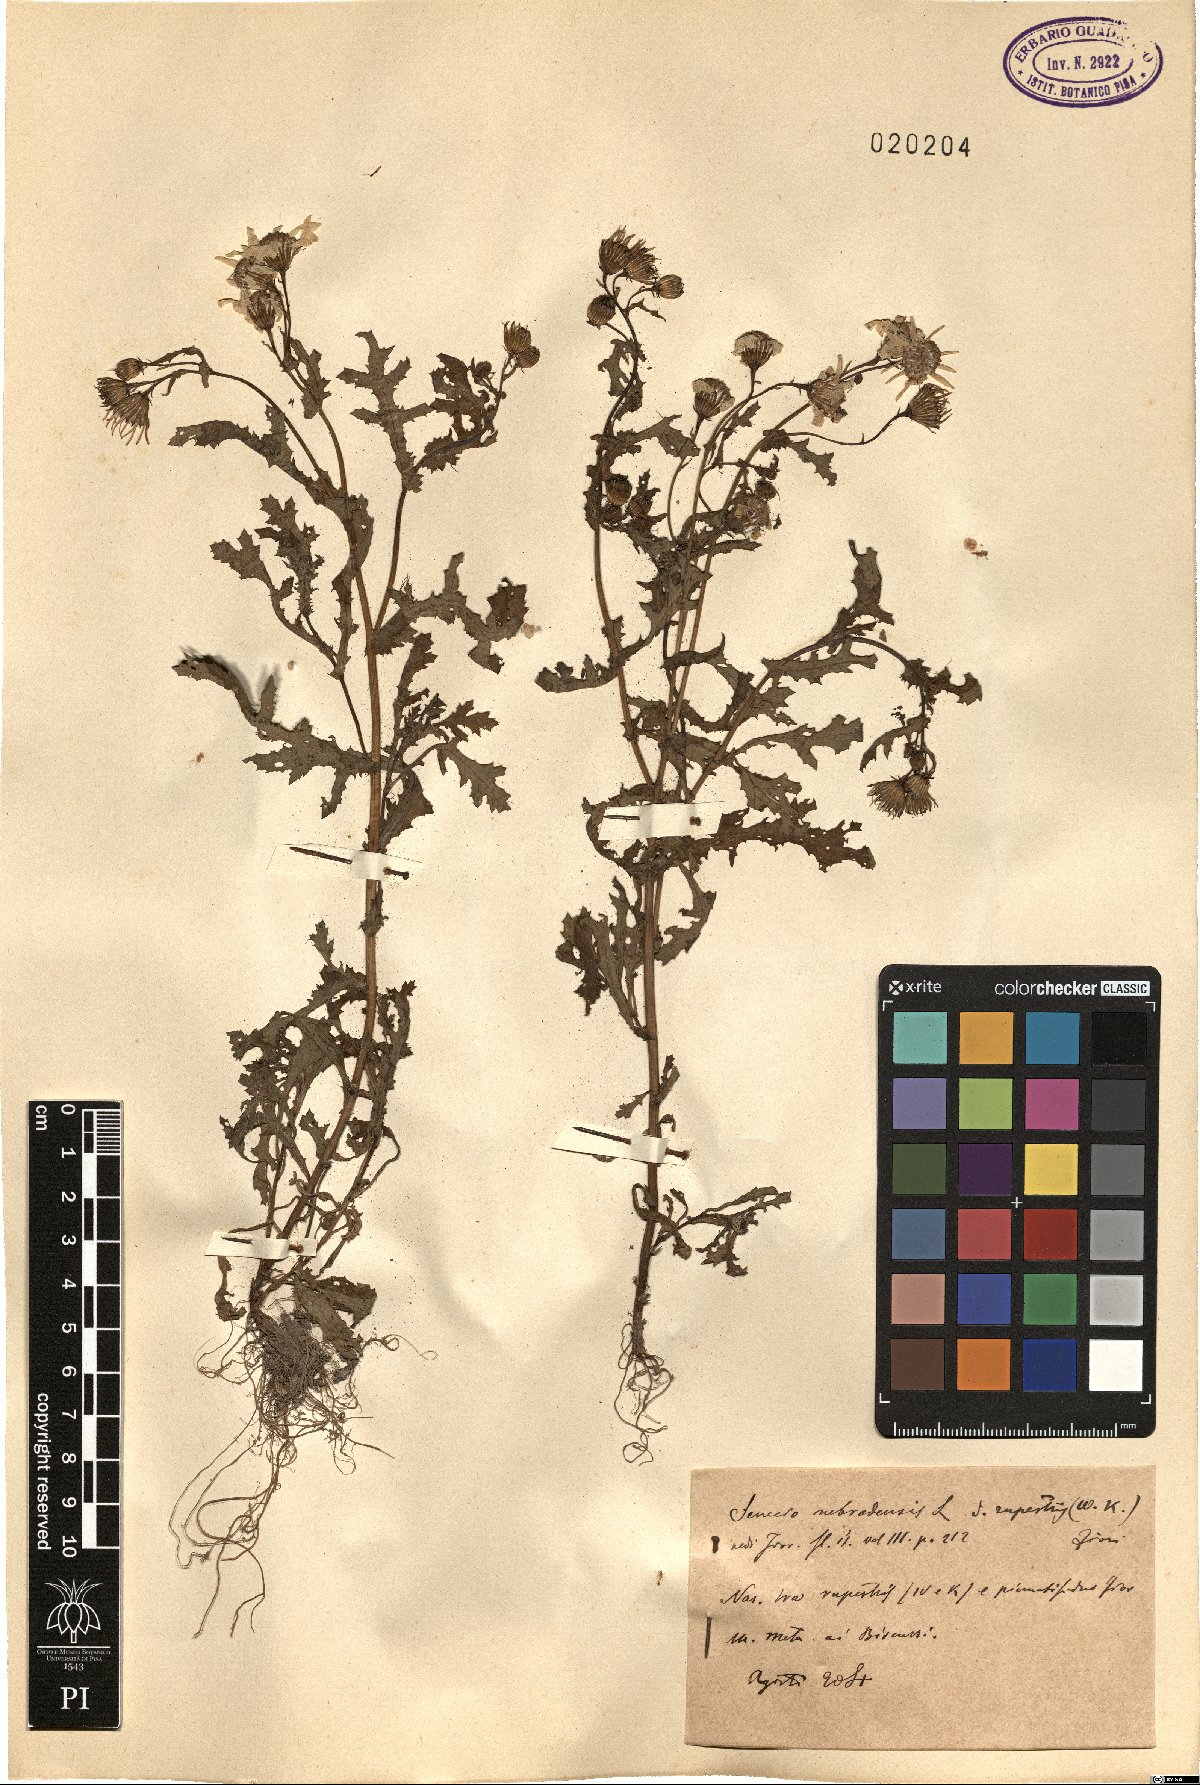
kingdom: Plantae
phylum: Tracheophyta
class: Magnoliopsida
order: Asterales
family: Asteraceae
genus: Senecio
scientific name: Senecio rupestris
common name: Rock ragwort
